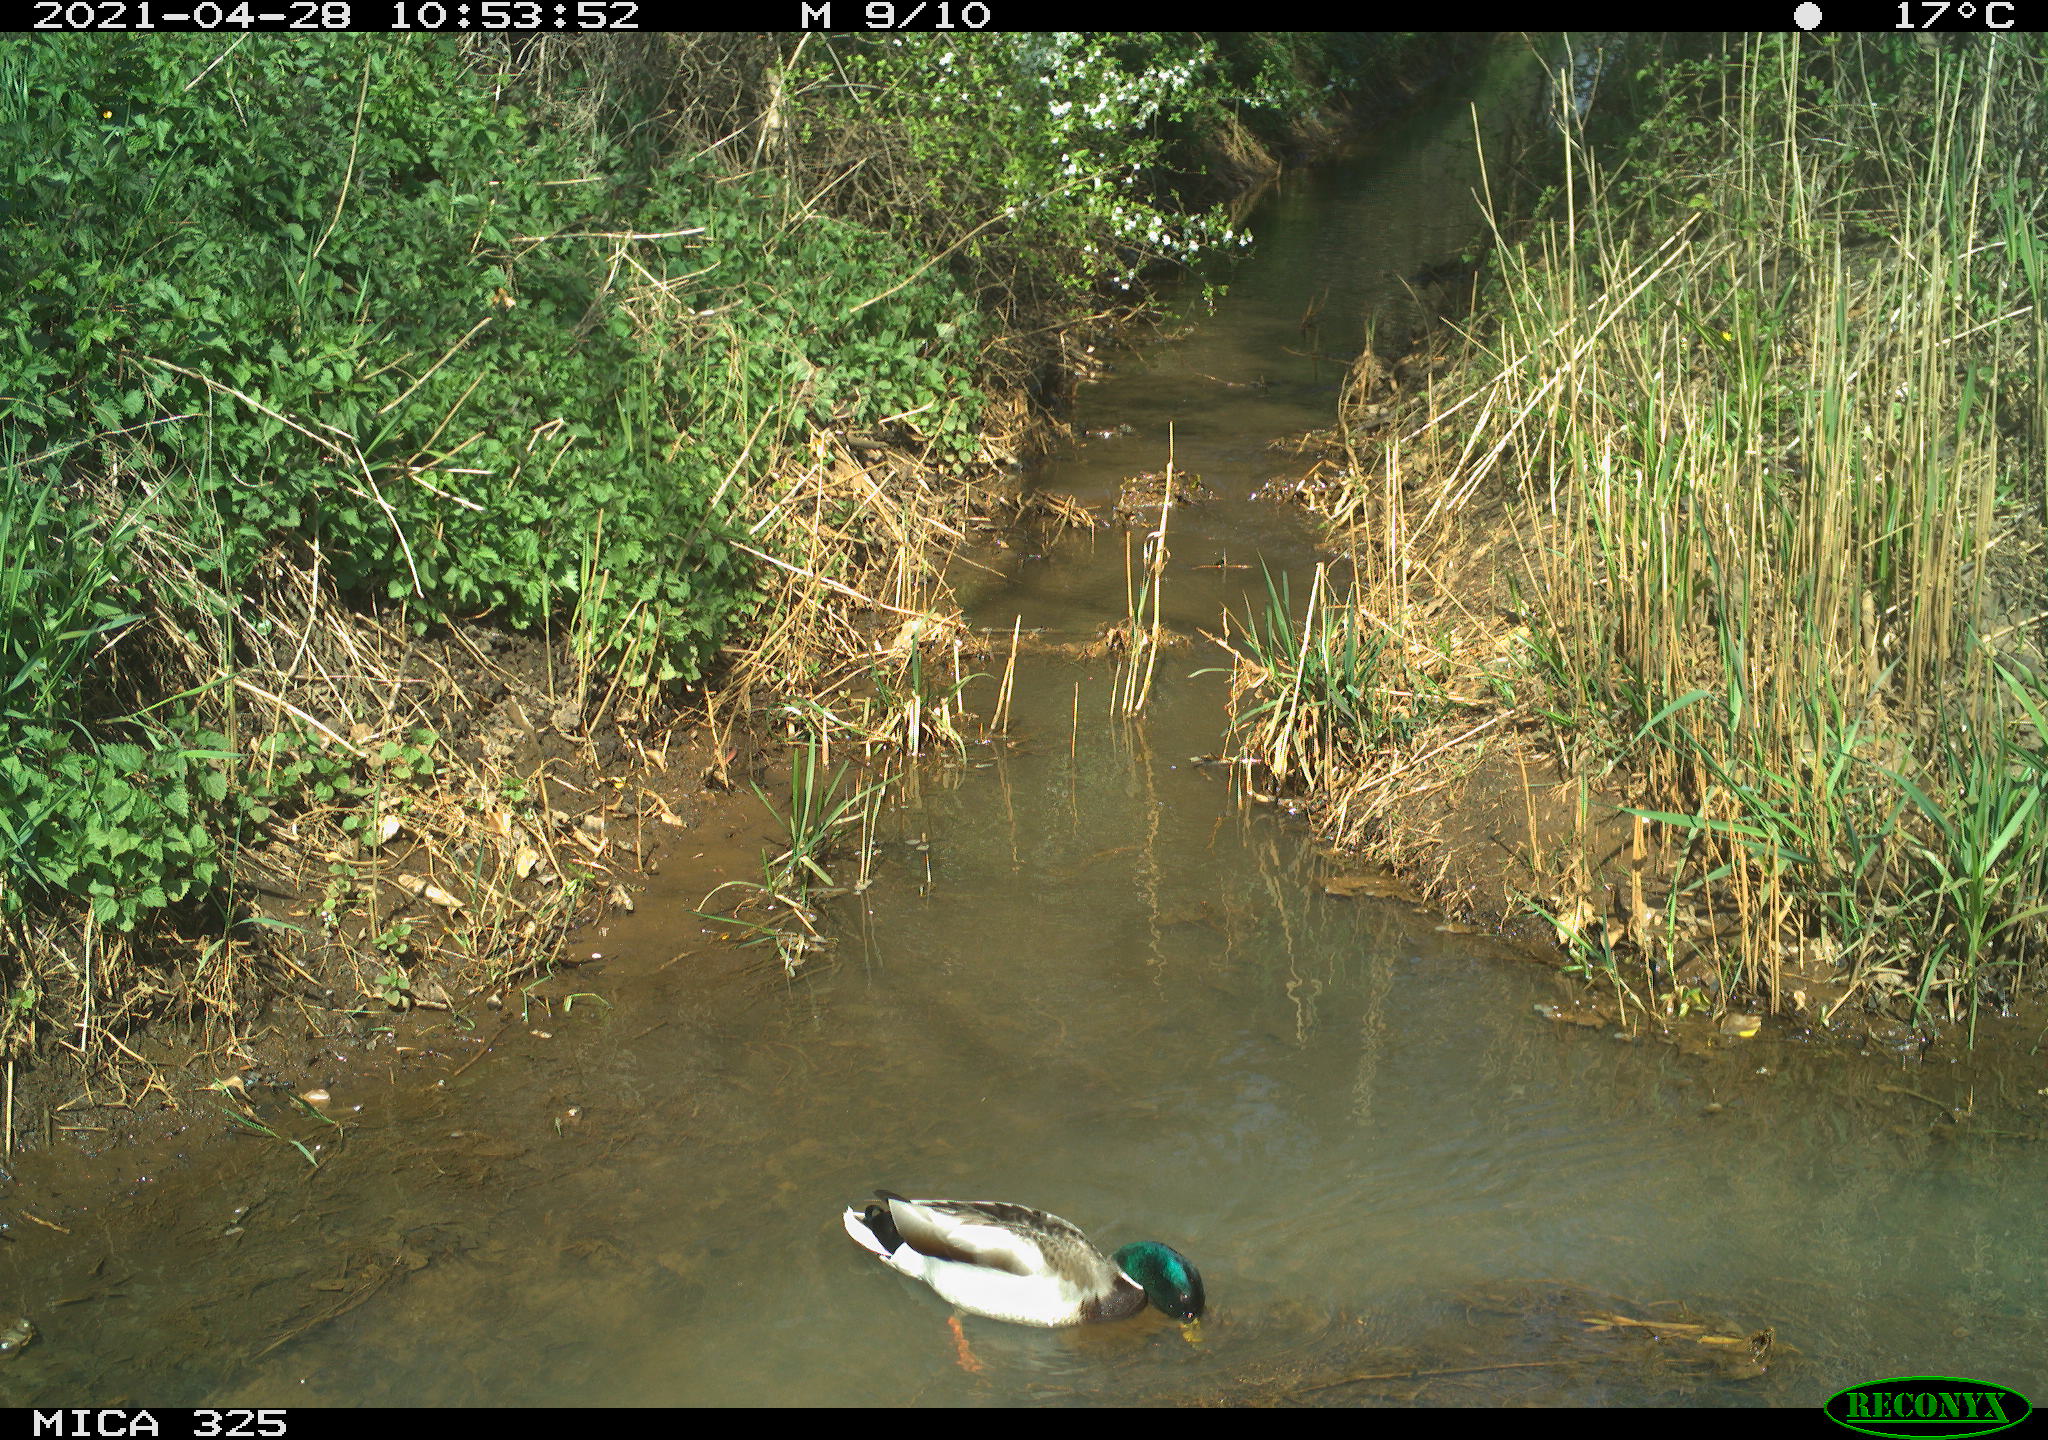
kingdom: Animalia
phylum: Chordata
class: Aves
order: Anseriformes
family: Anatidae
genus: Anas
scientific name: Anas platyrhynchos
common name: Mallard
